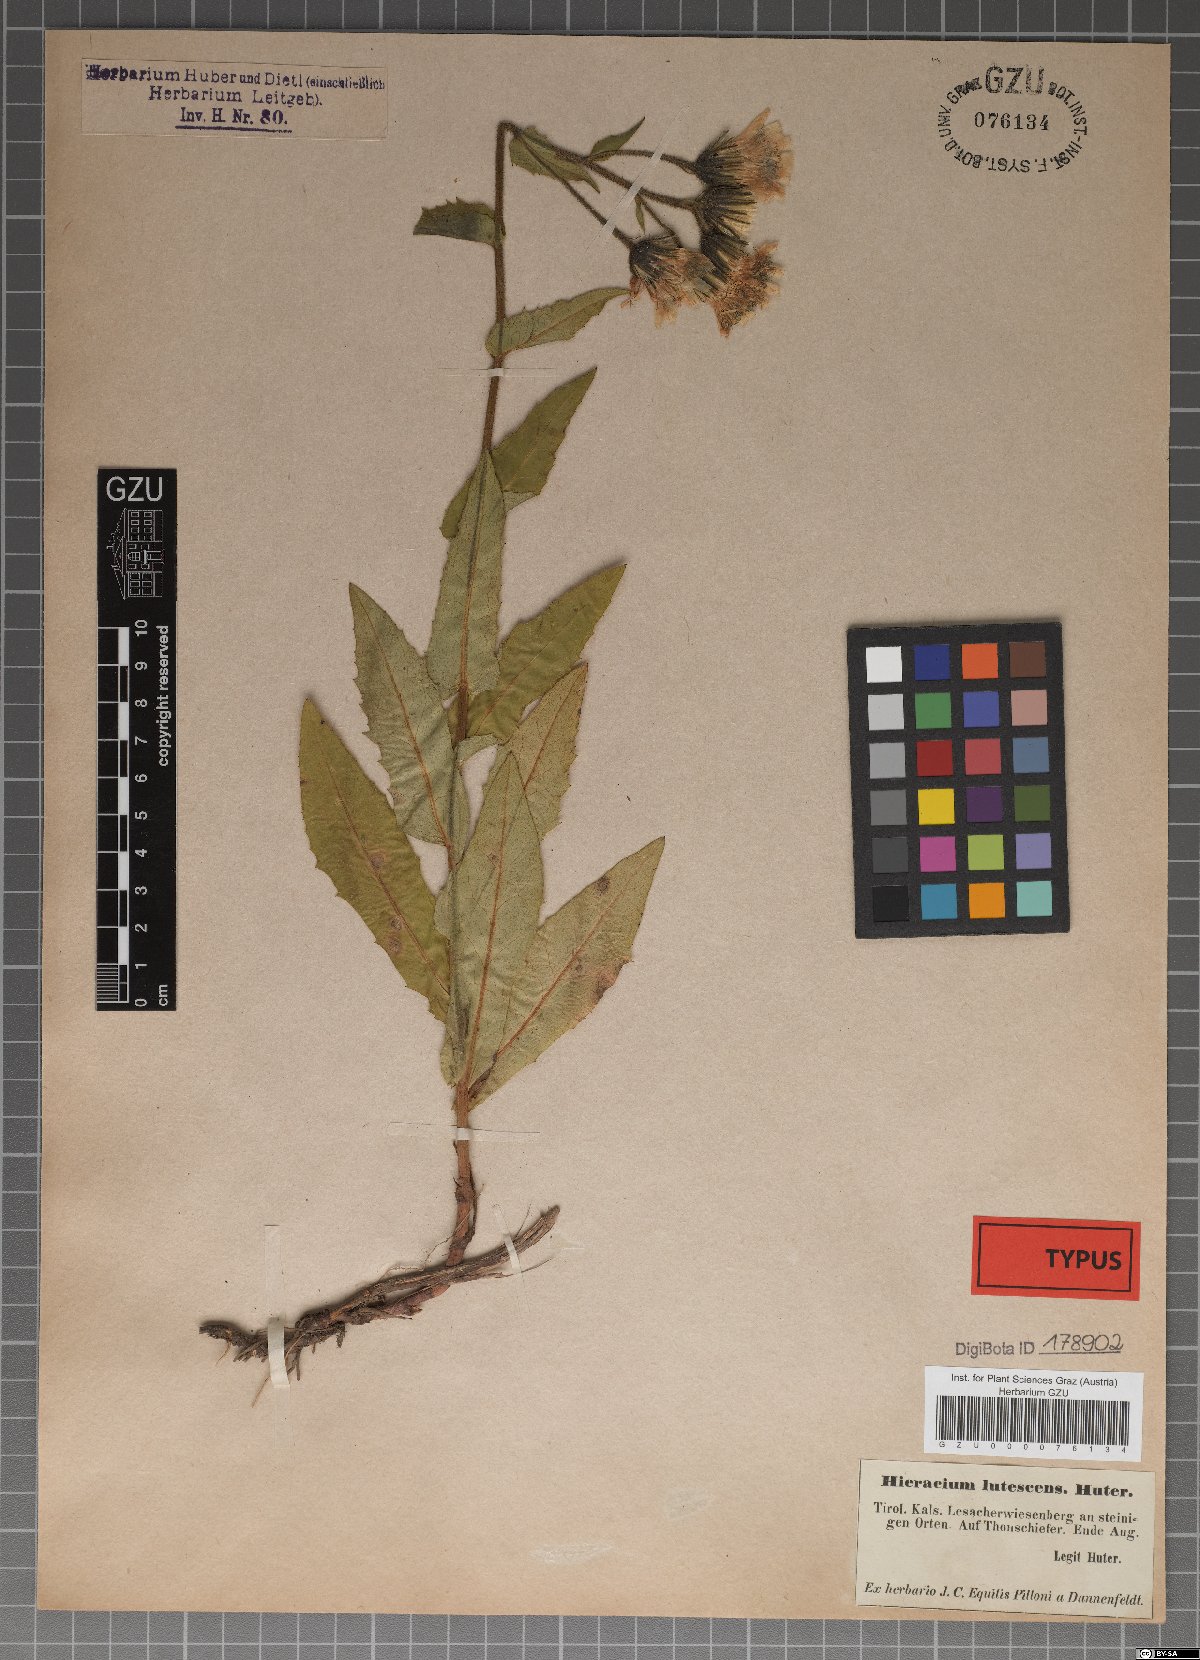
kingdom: Plantae
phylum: Tracheophyta
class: Magnoliopsida
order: Asterales
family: Asteraceae
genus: Hieracium
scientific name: Hieracium picroides
